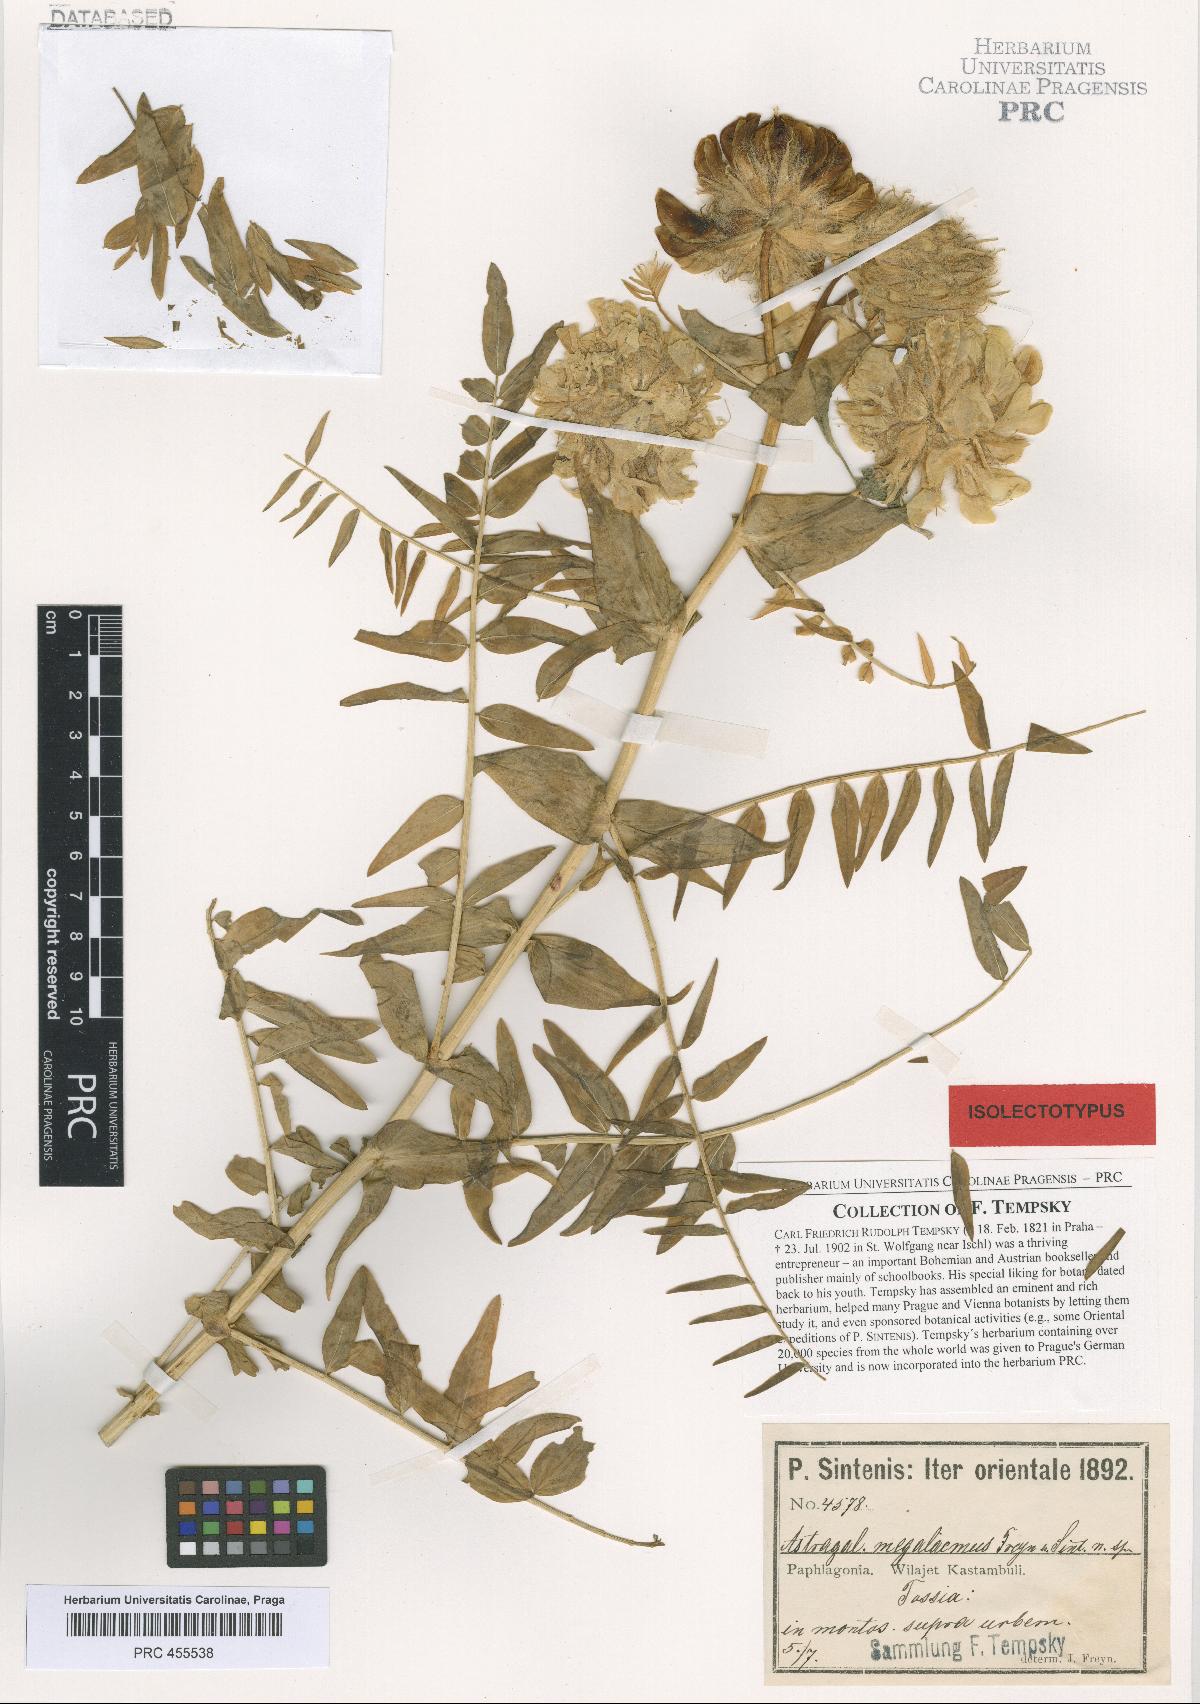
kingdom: Plantae
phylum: Tracheophyta
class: Magnoliopsida
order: Fabales
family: Fabaceae
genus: Astragalus
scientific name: Astragalus macrocephalus
